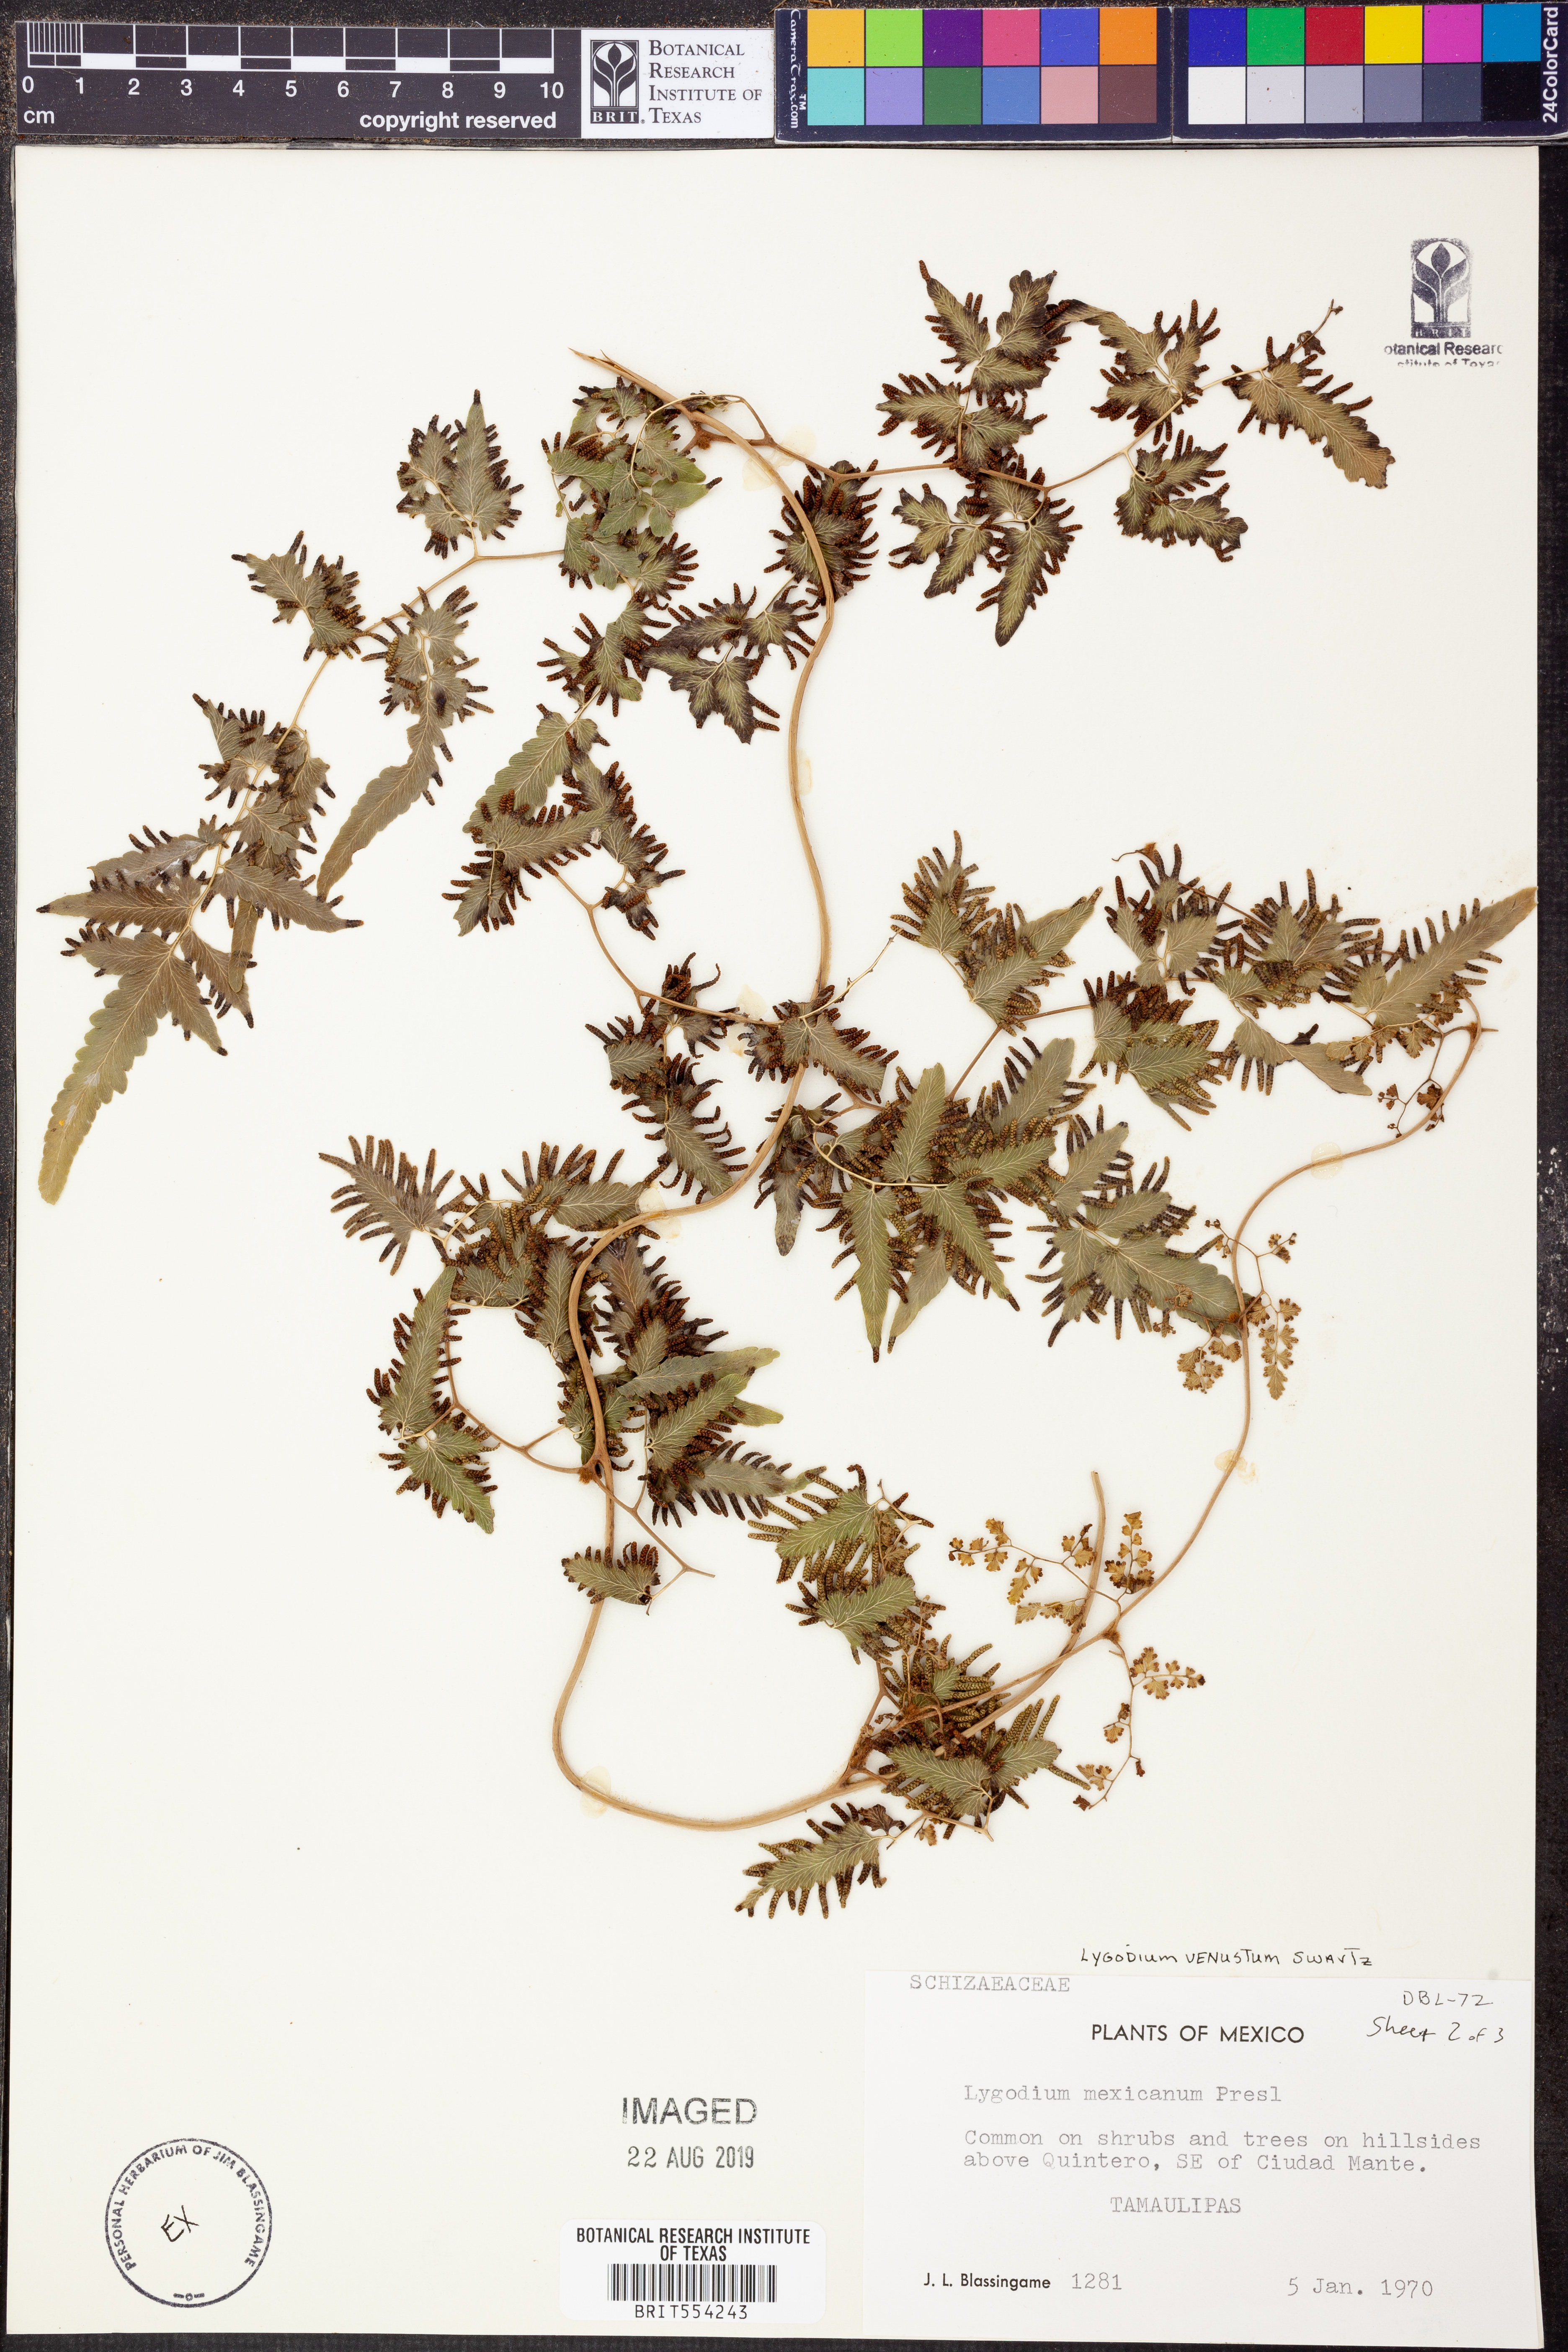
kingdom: Plantae
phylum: Tracheophyta
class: Polypodiopsida
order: Schizaeales
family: Lygodiaceae
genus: Lygodium
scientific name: Lygodium venustum
